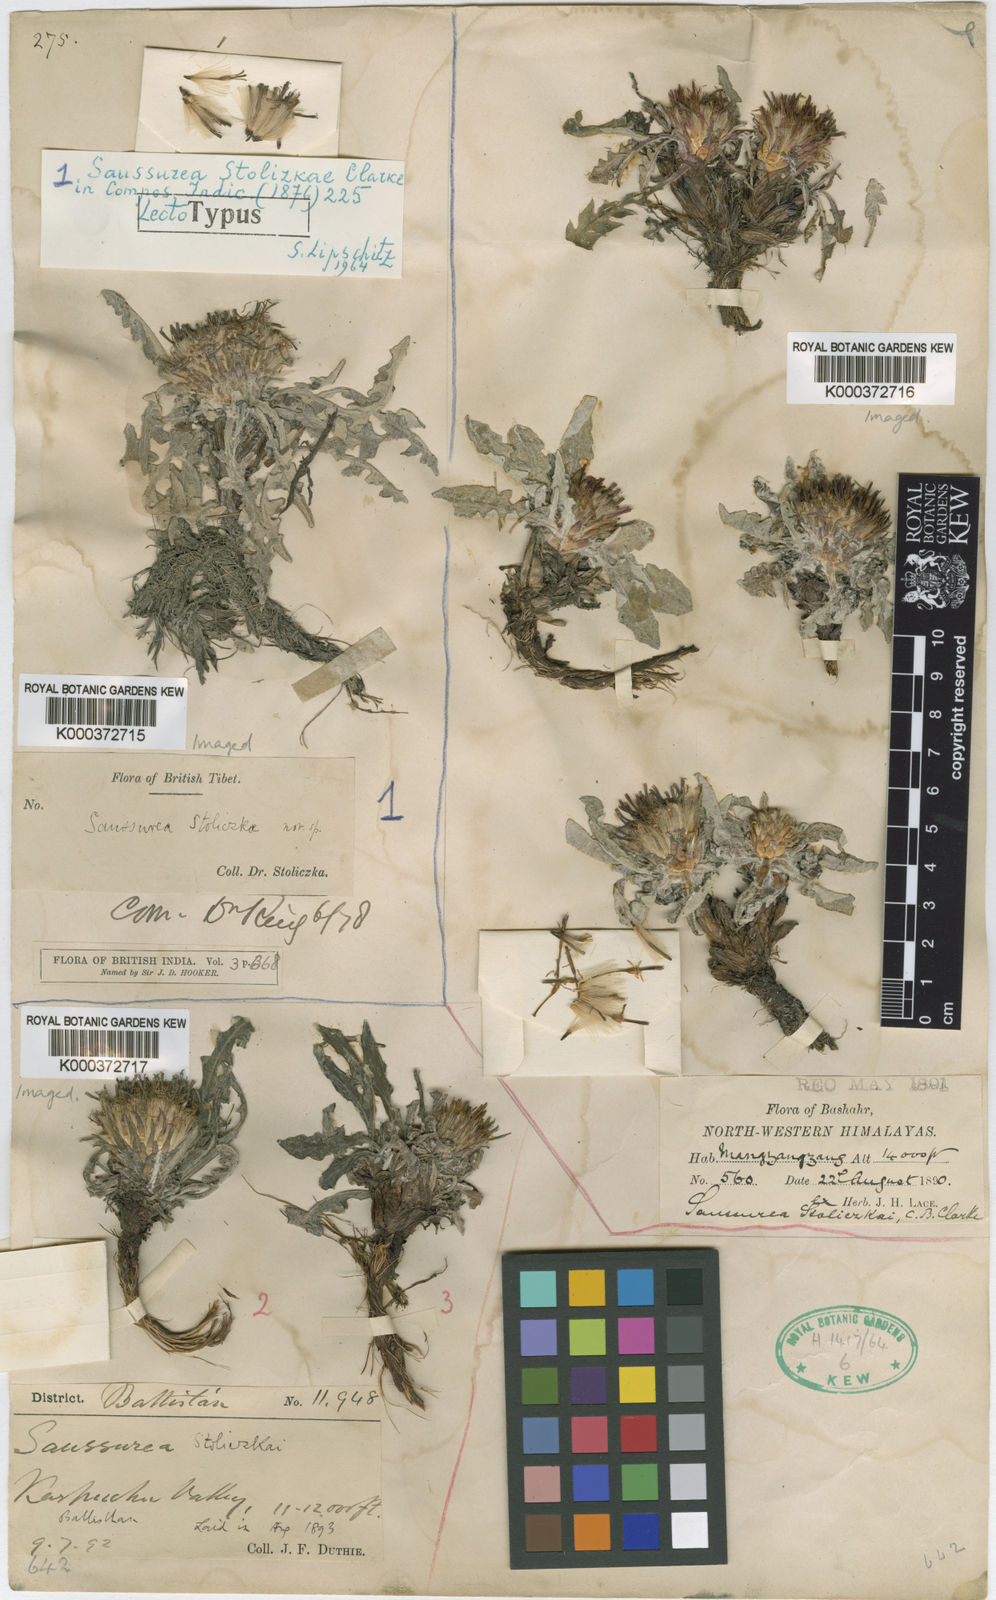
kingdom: Plantae
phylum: Tracheophyta
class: Magnoliopsida
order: Asterales
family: Asteraceae
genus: Saussurea
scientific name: Saussurea stoliczkae
